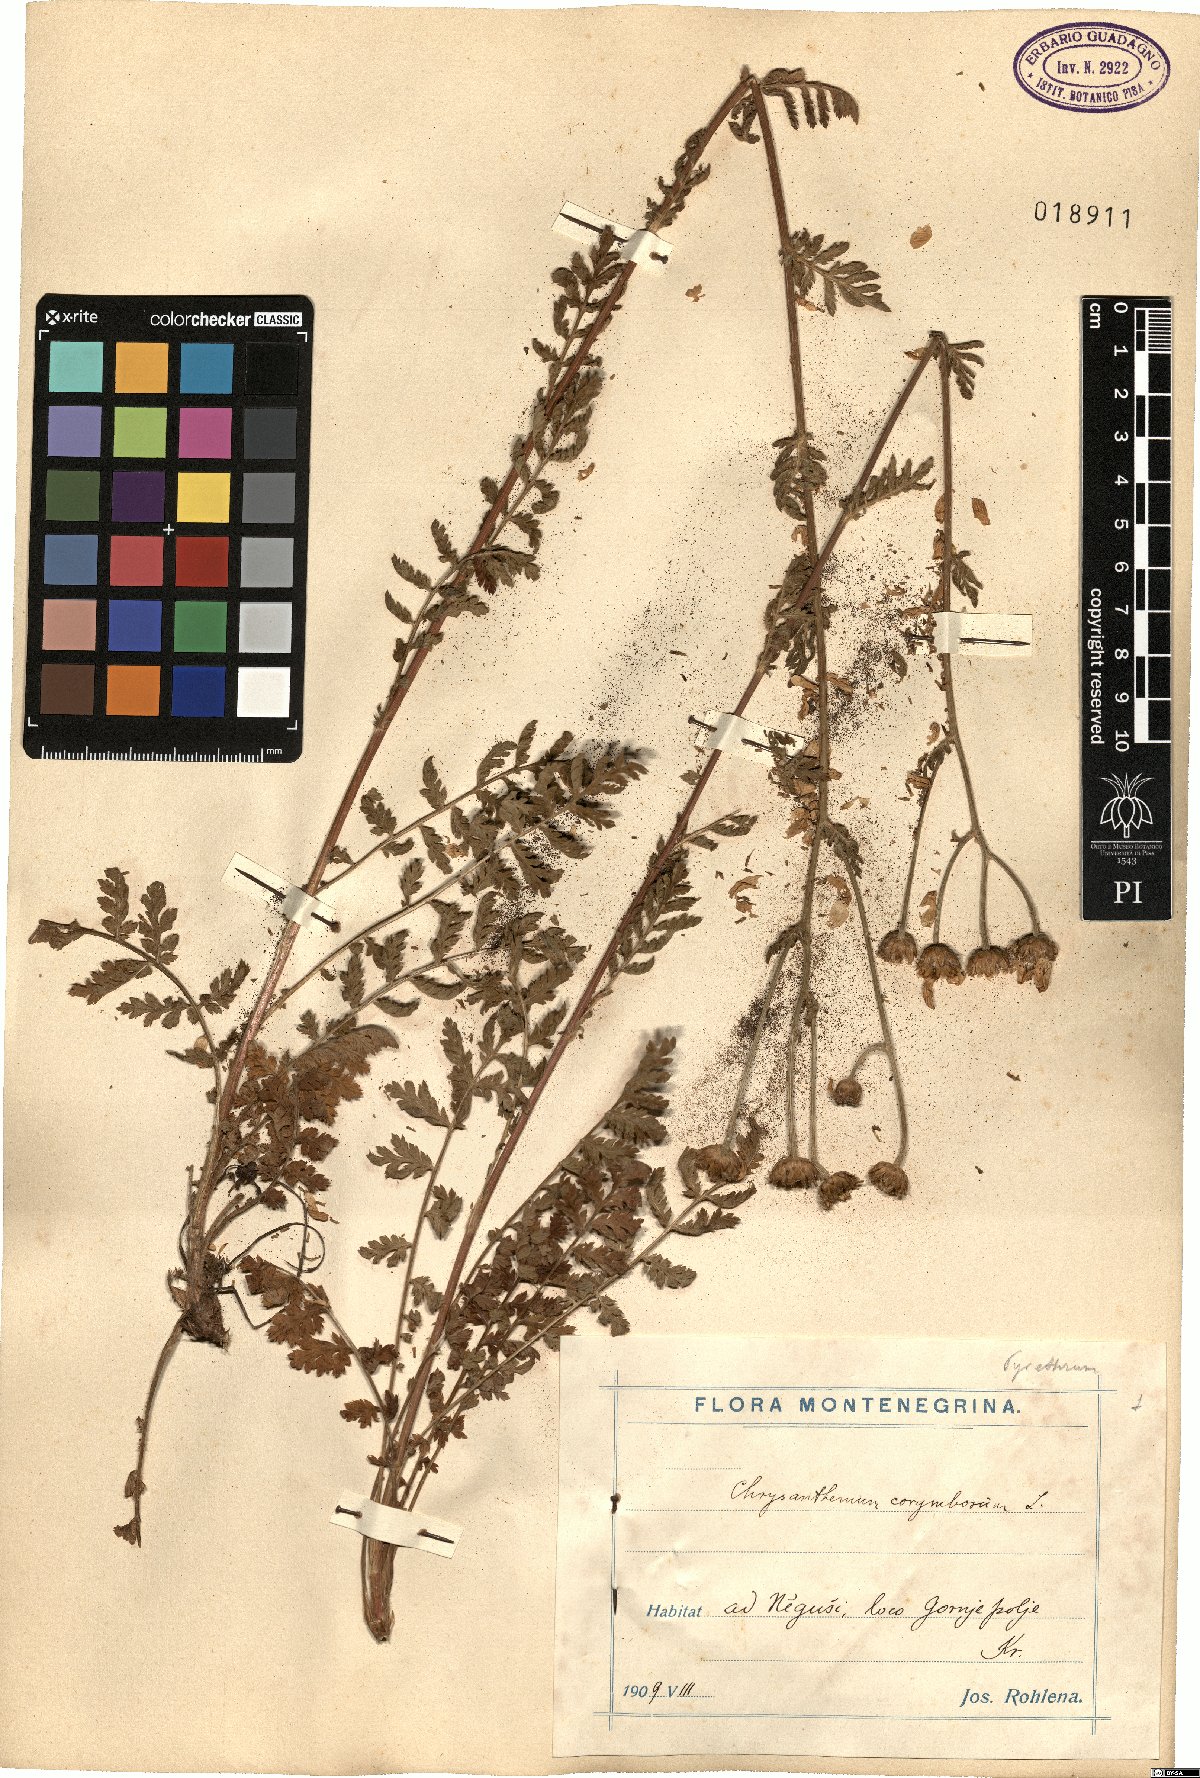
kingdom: Plantae
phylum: Tracheophyta
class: Magnoliopsida
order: Asterales
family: Asteraceae
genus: Tanacetum
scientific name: Tanacetum corymbosum
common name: Scentless feverfew
